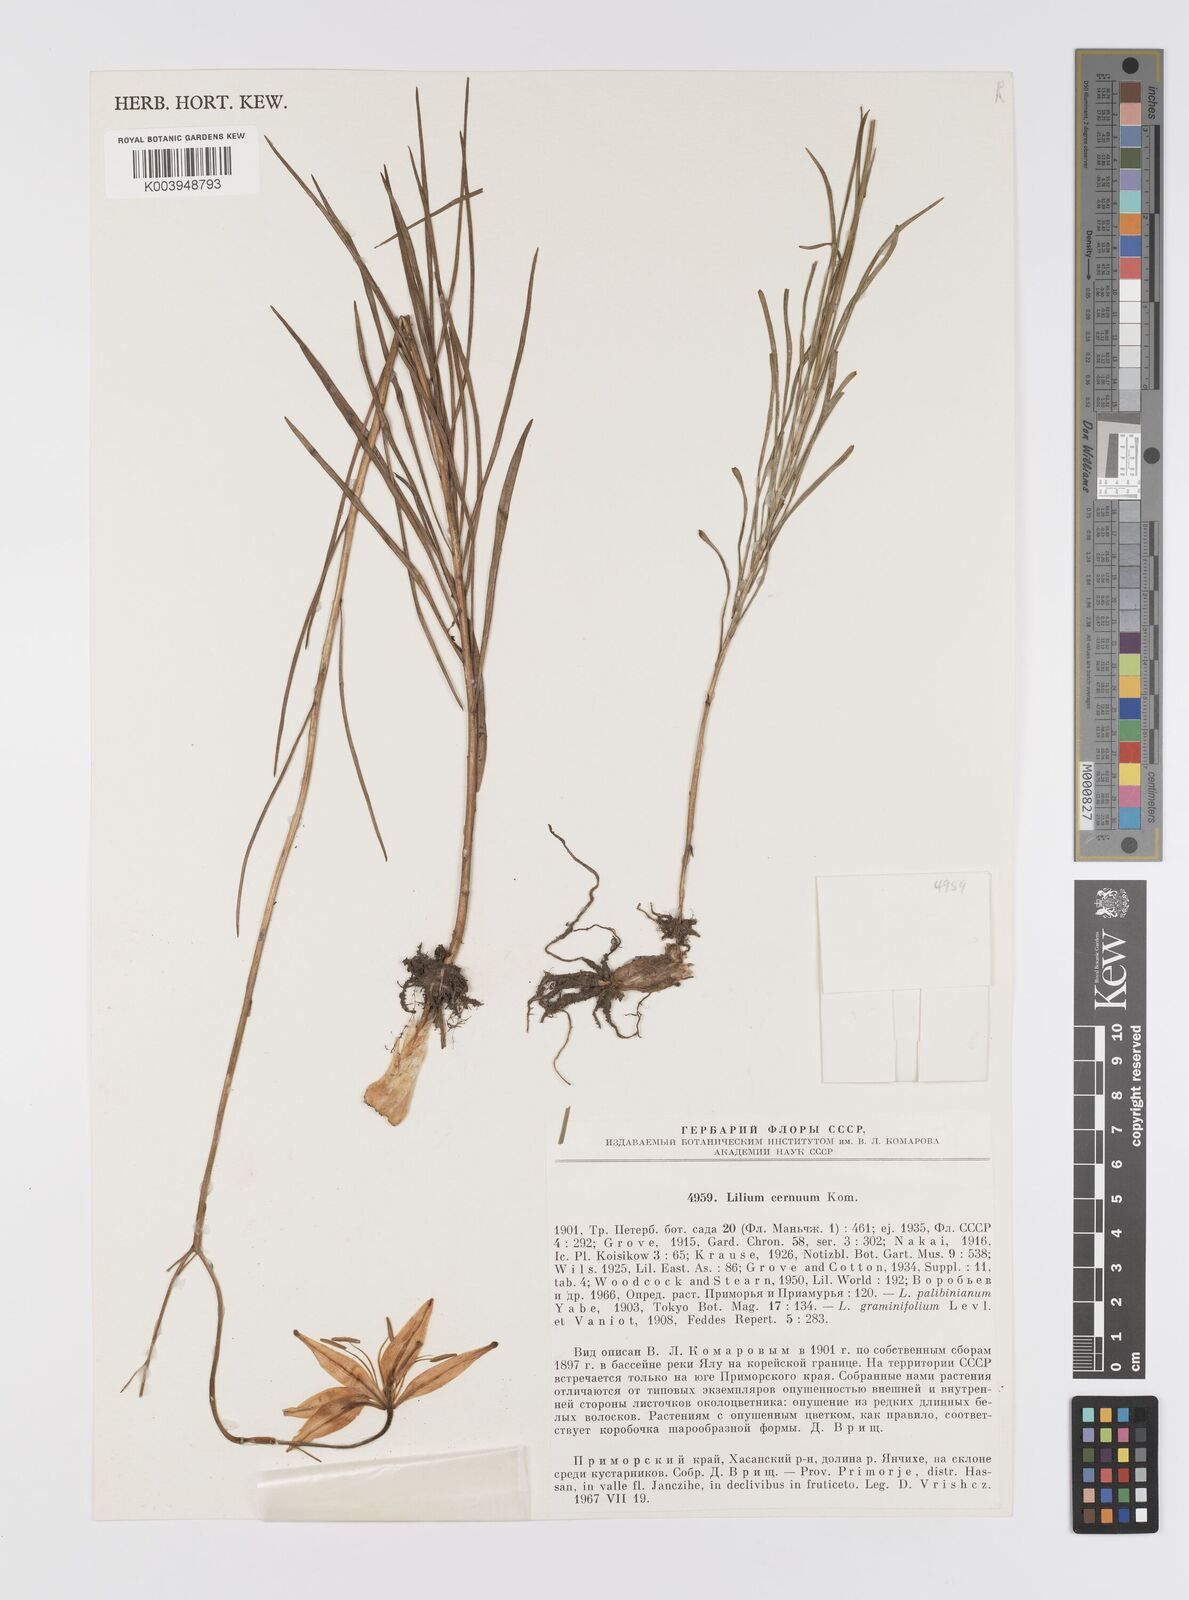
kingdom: Plantae
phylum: Tracheophyta
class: Liliopsida
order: Liliales
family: Liliaceae
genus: Lilium
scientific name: Lilium cernuum
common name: Nodding lily
